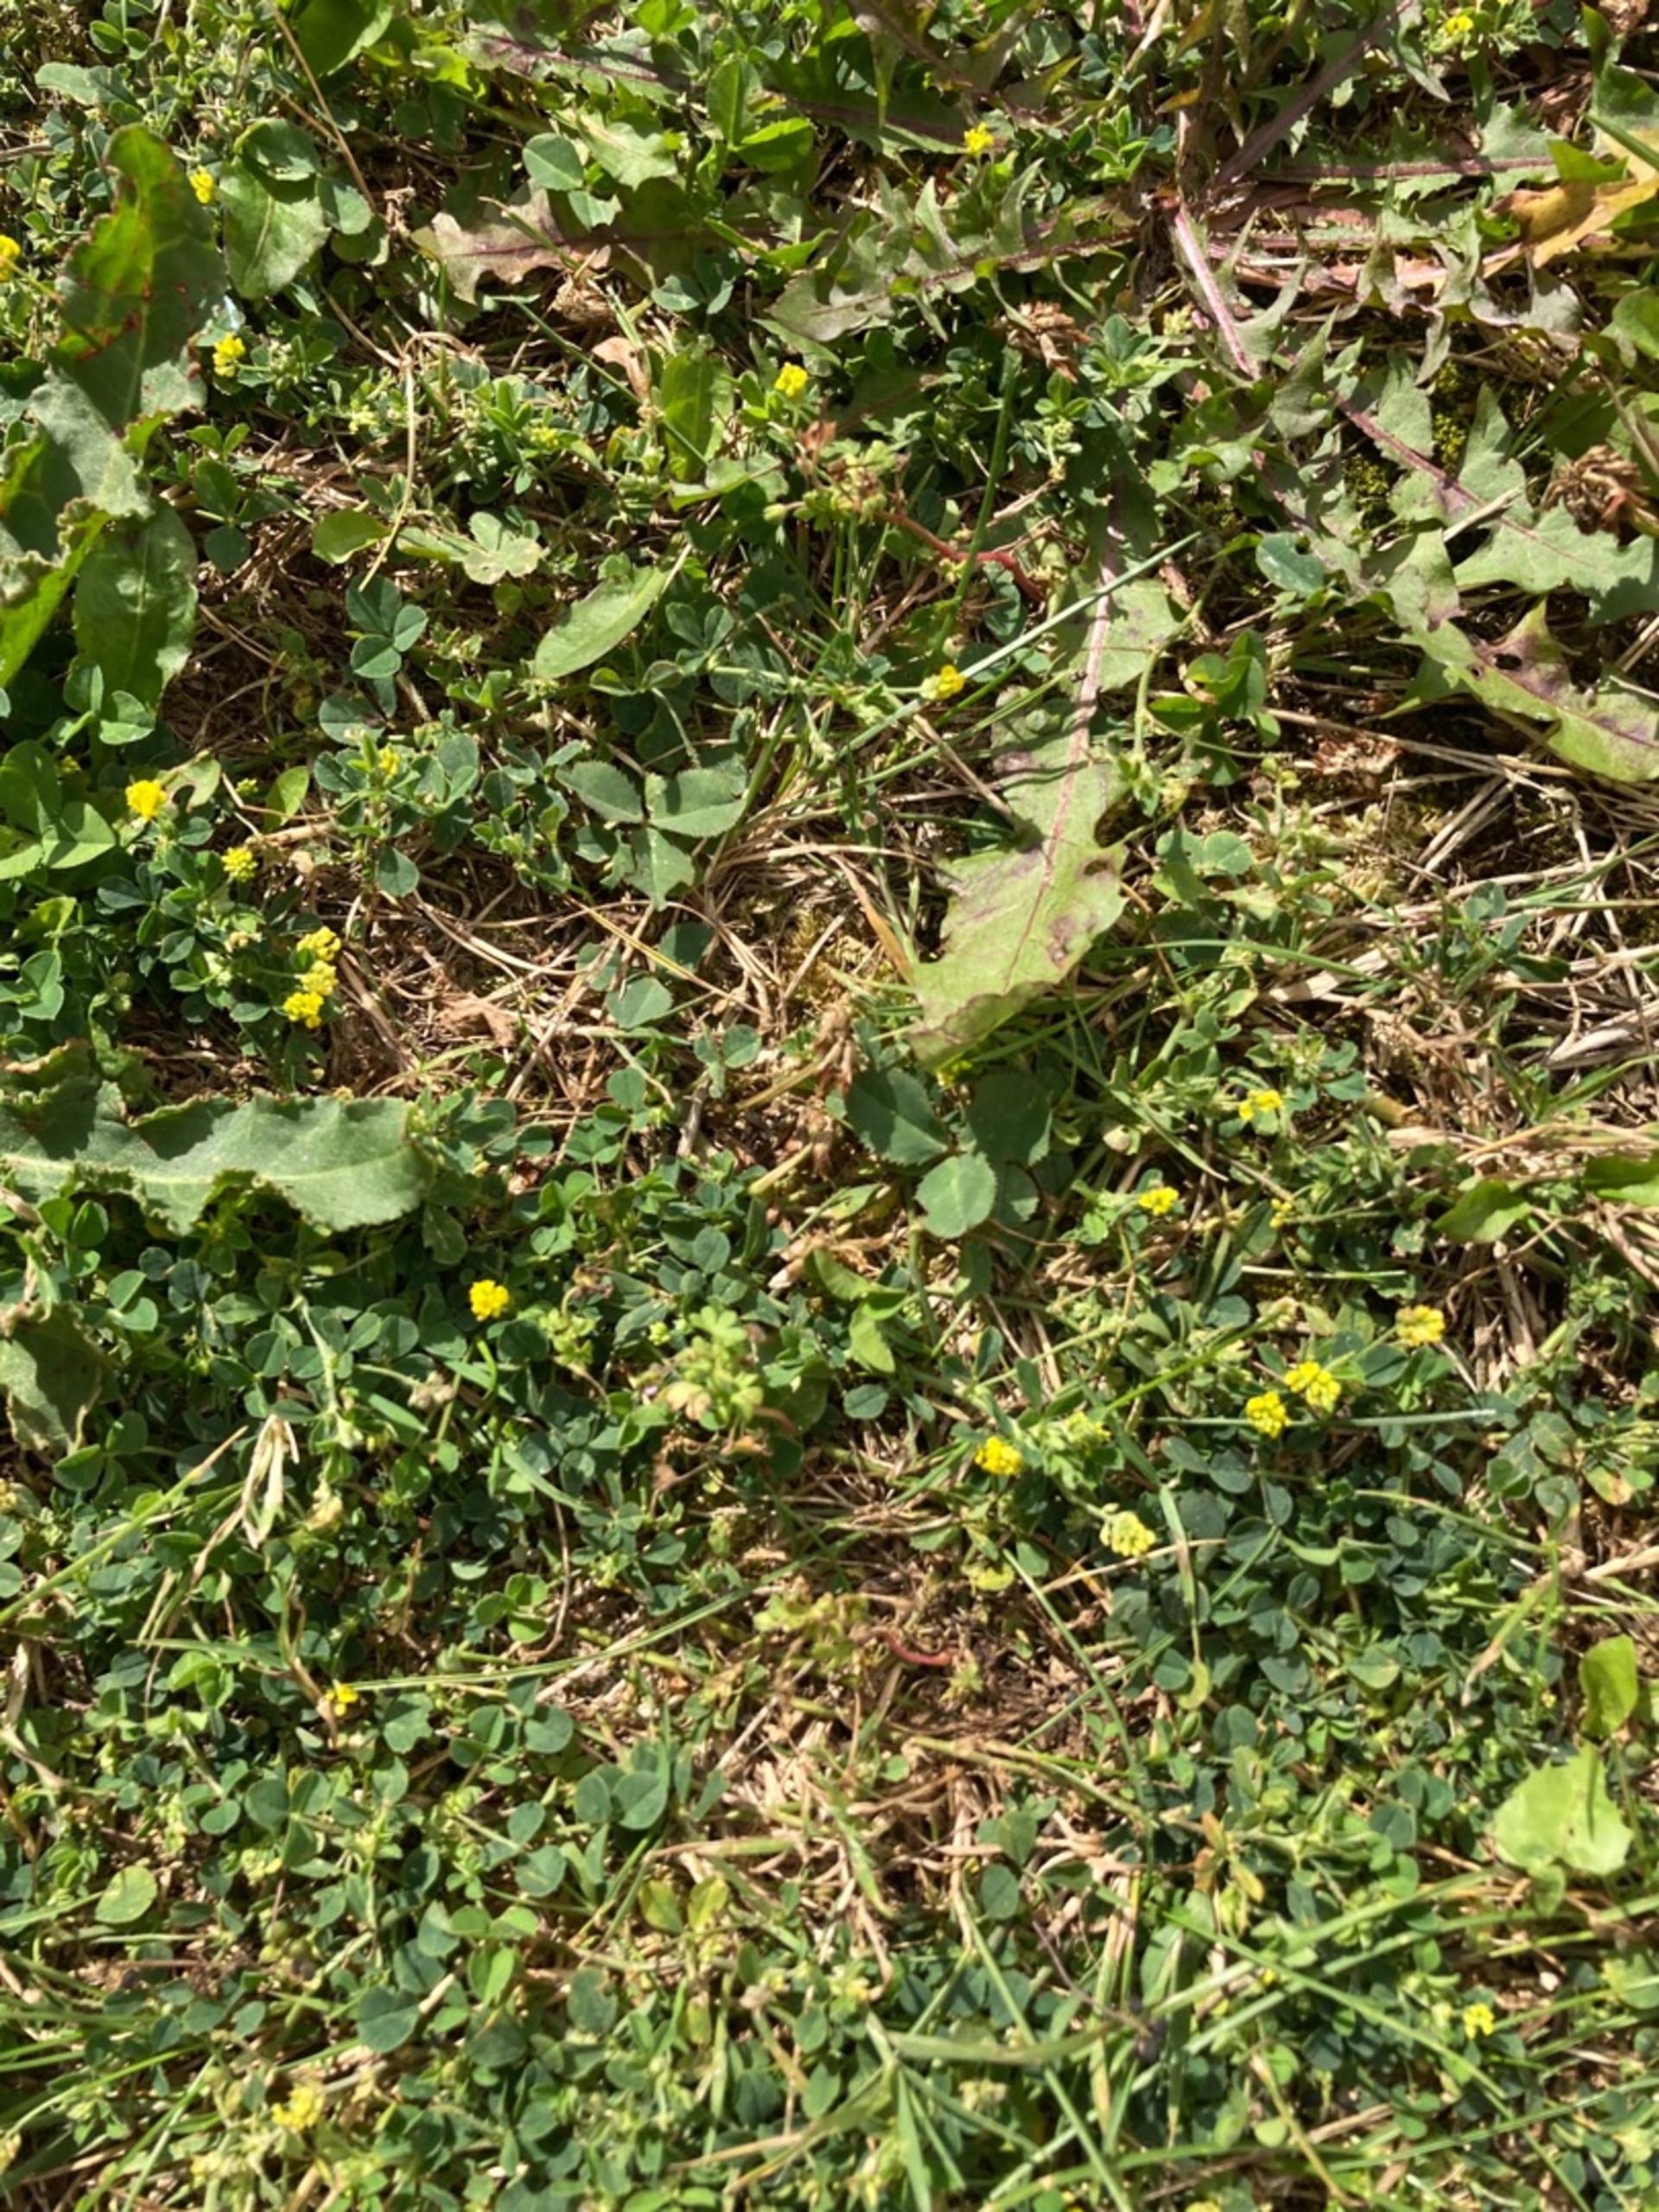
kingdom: Plantae
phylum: Tracheophyta
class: Magnoliopsida
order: Fabales
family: Fabaceae
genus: Medicago
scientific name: Medicago lupulina
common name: Humle-sneglebælg
